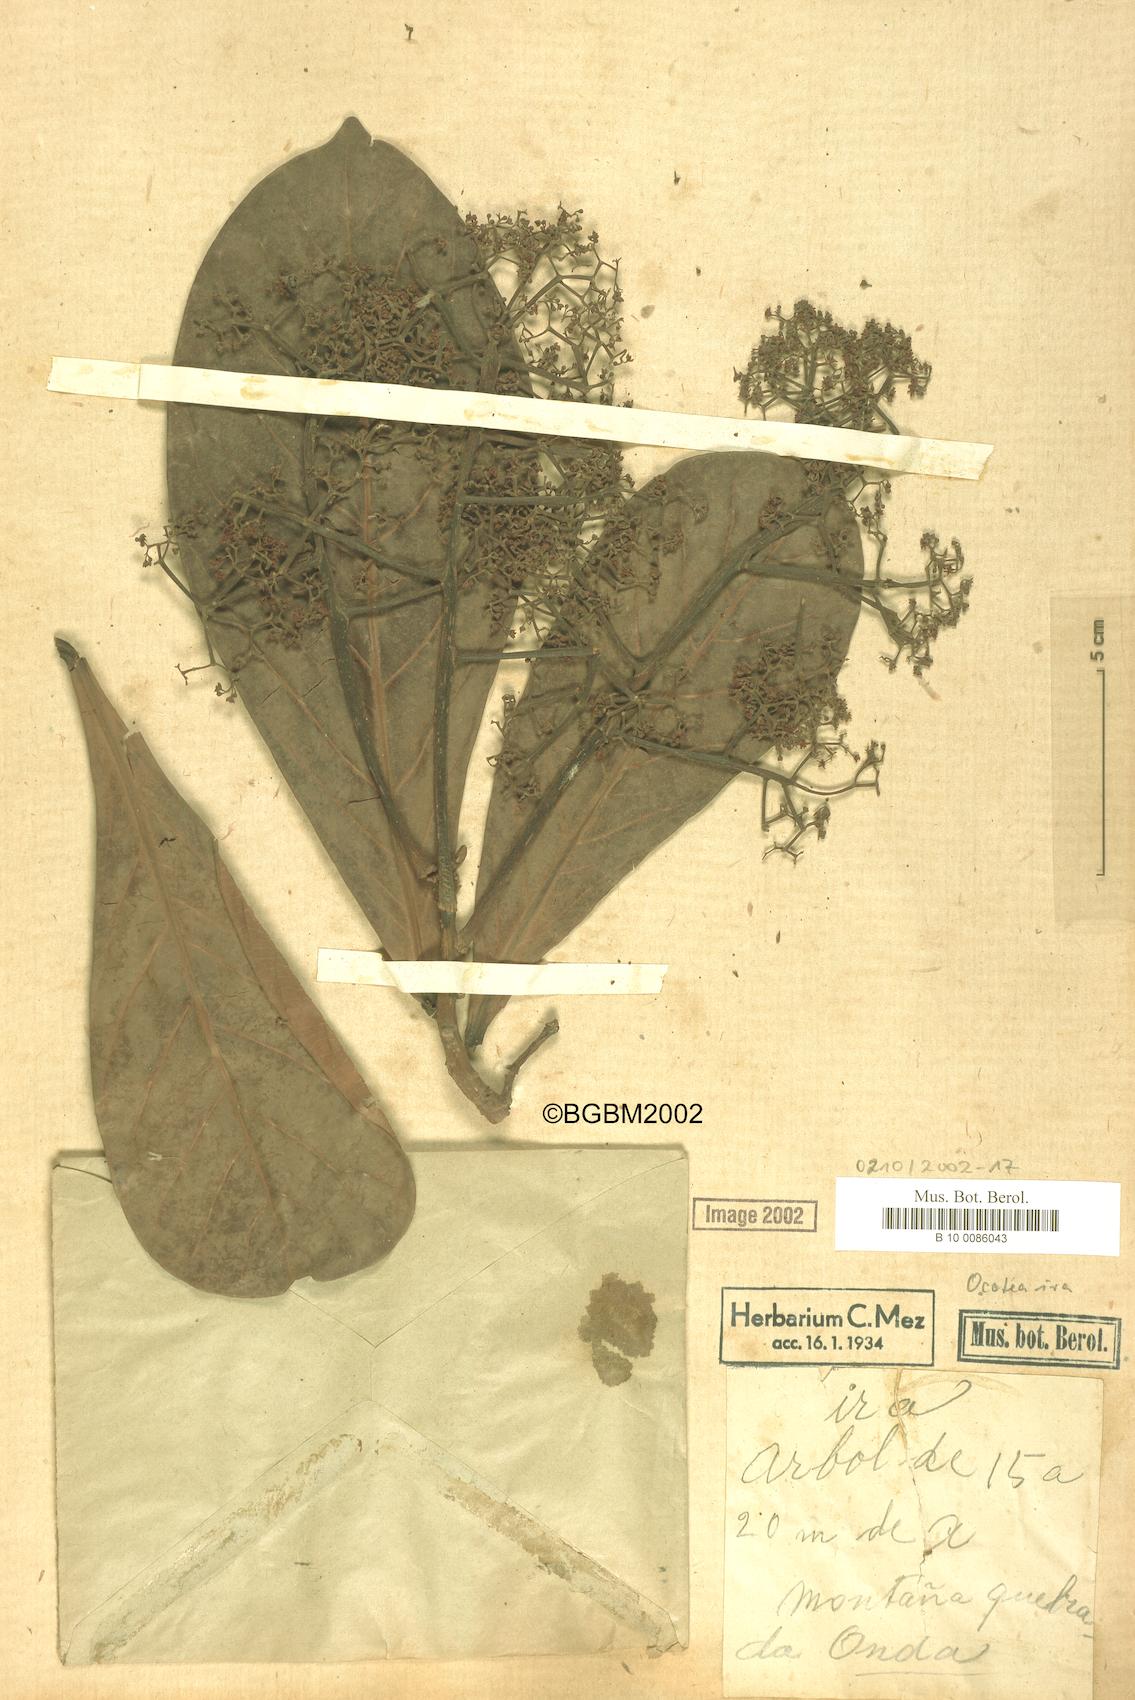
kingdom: Plantae
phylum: Tracheophyta
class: Magnoliopsida
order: Laurales
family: Lauraceae
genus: Ocotea
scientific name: Ocotea insularis
